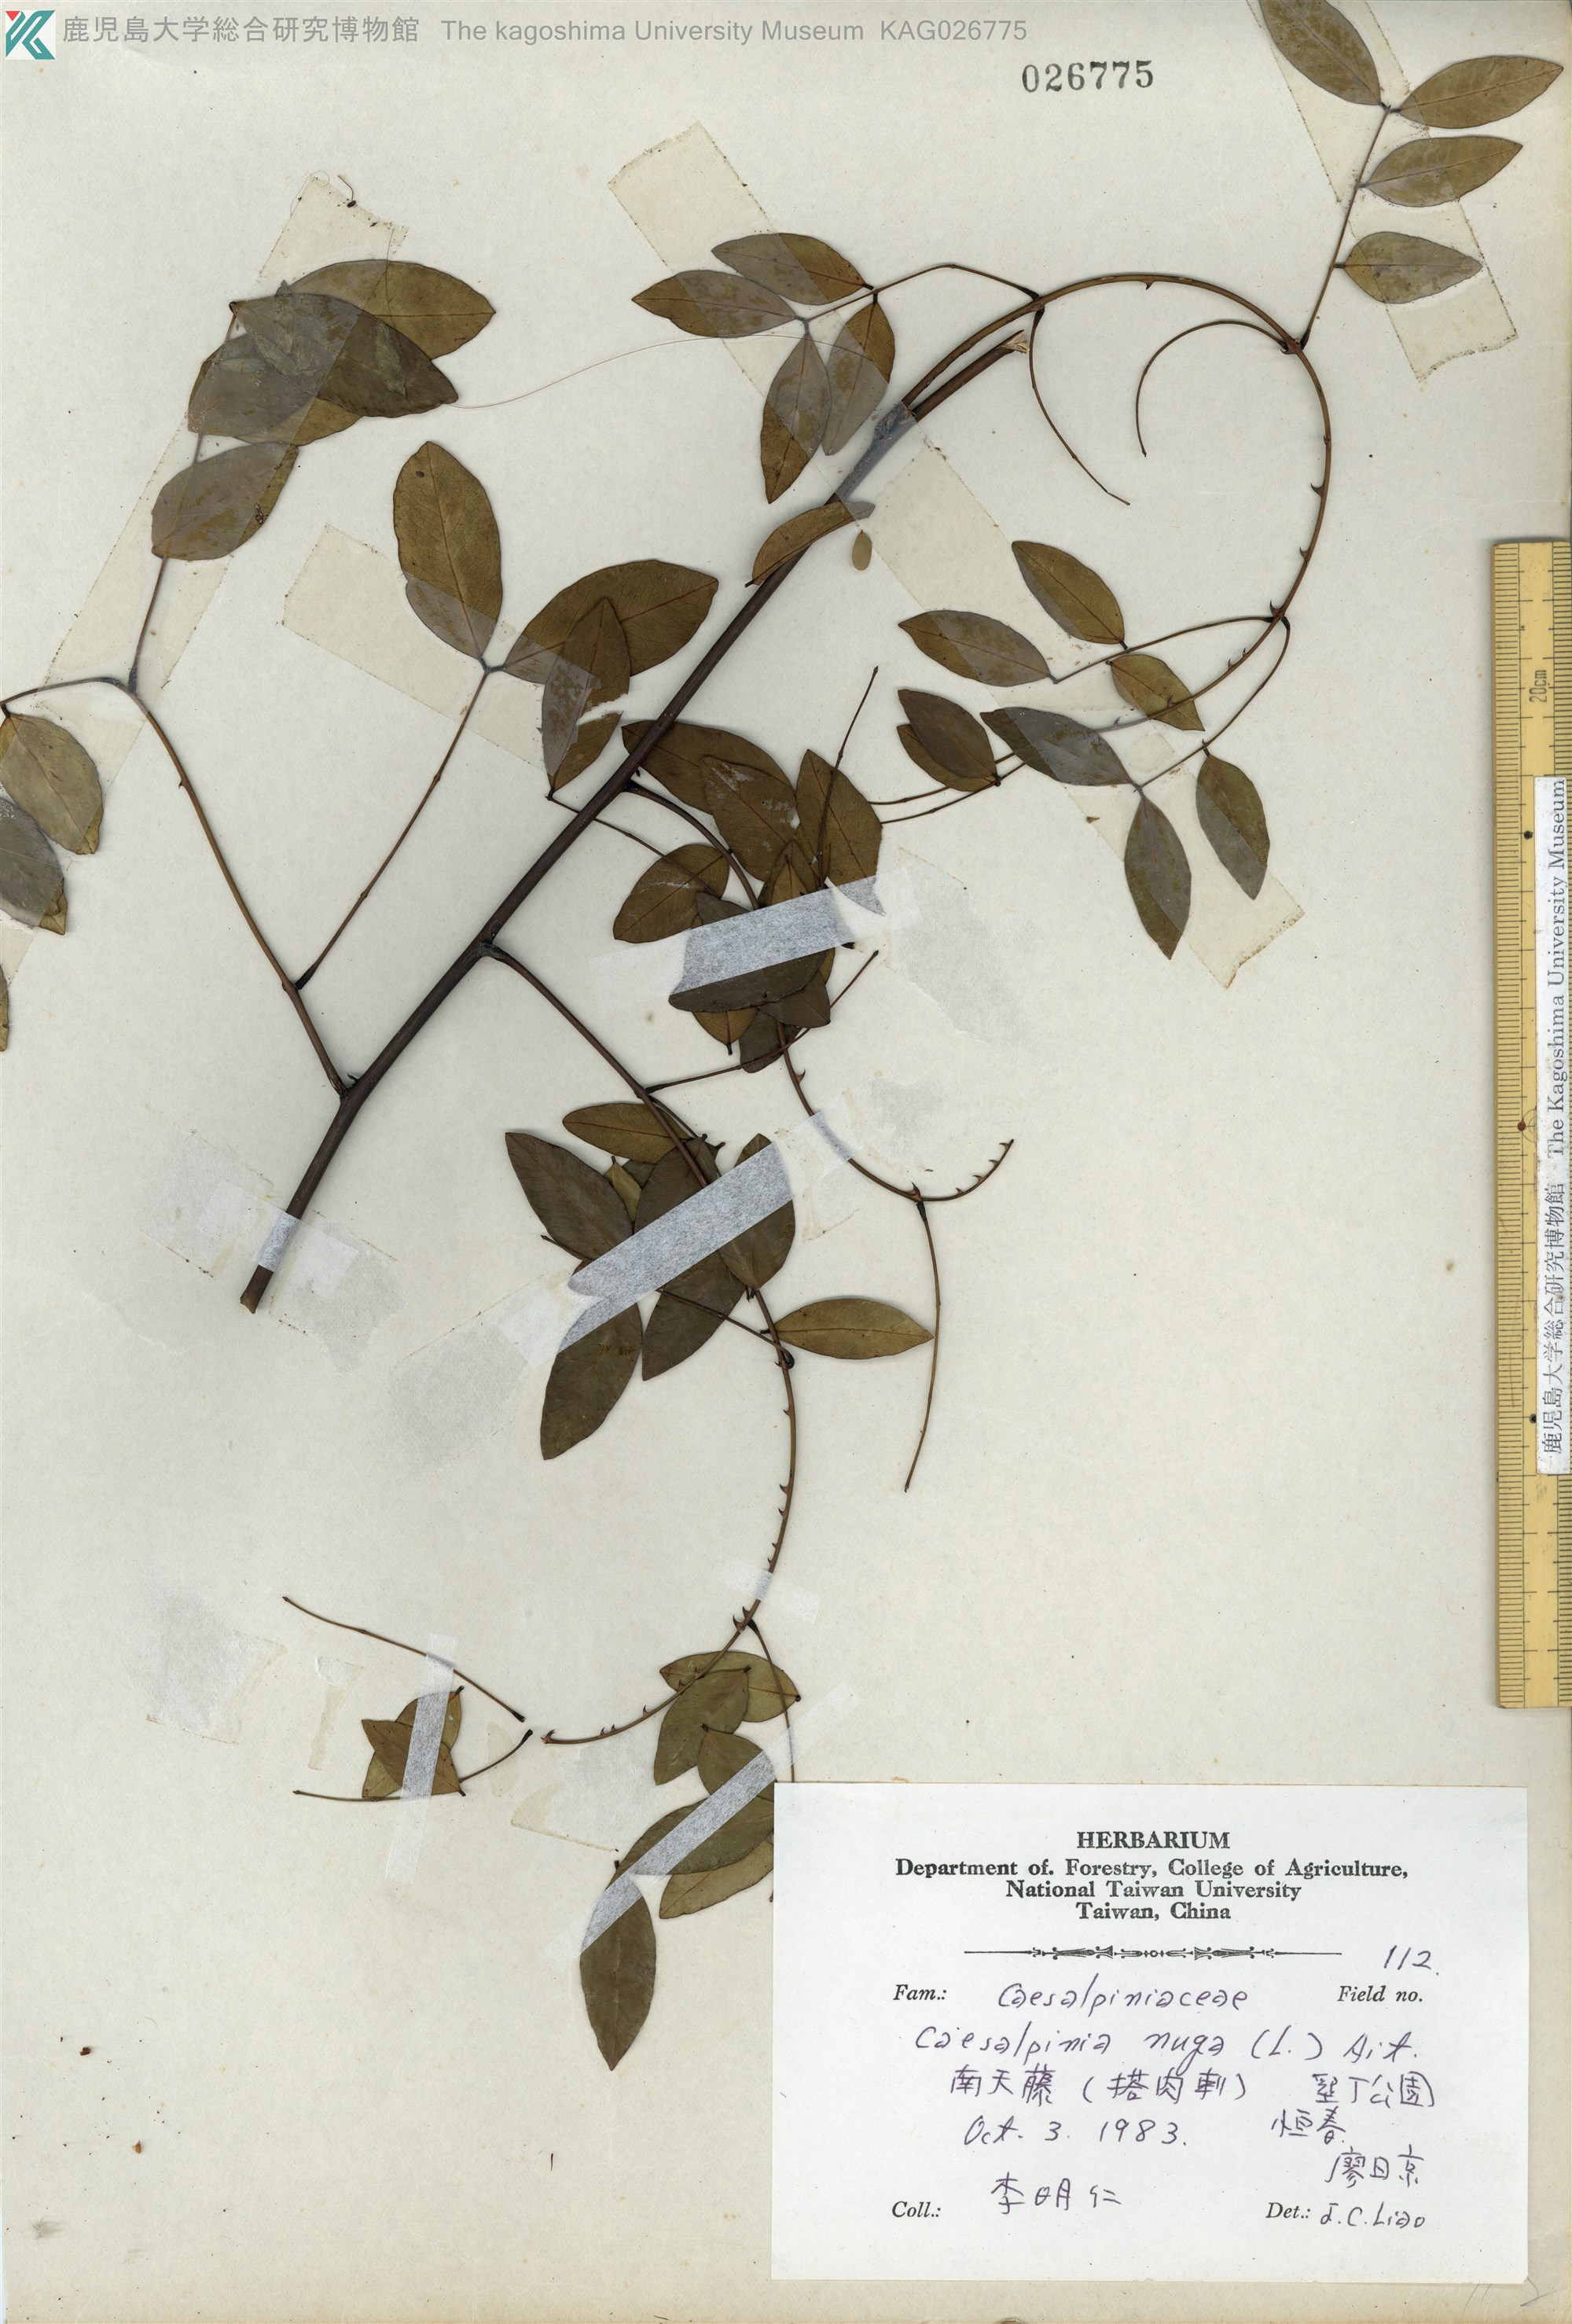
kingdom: Plantae
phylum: Tracheophyta
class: Magnoliopsida
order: Fabales
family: Fabaceae
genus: Caesalpinia
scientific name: Caesalpinia Ticanto crista
